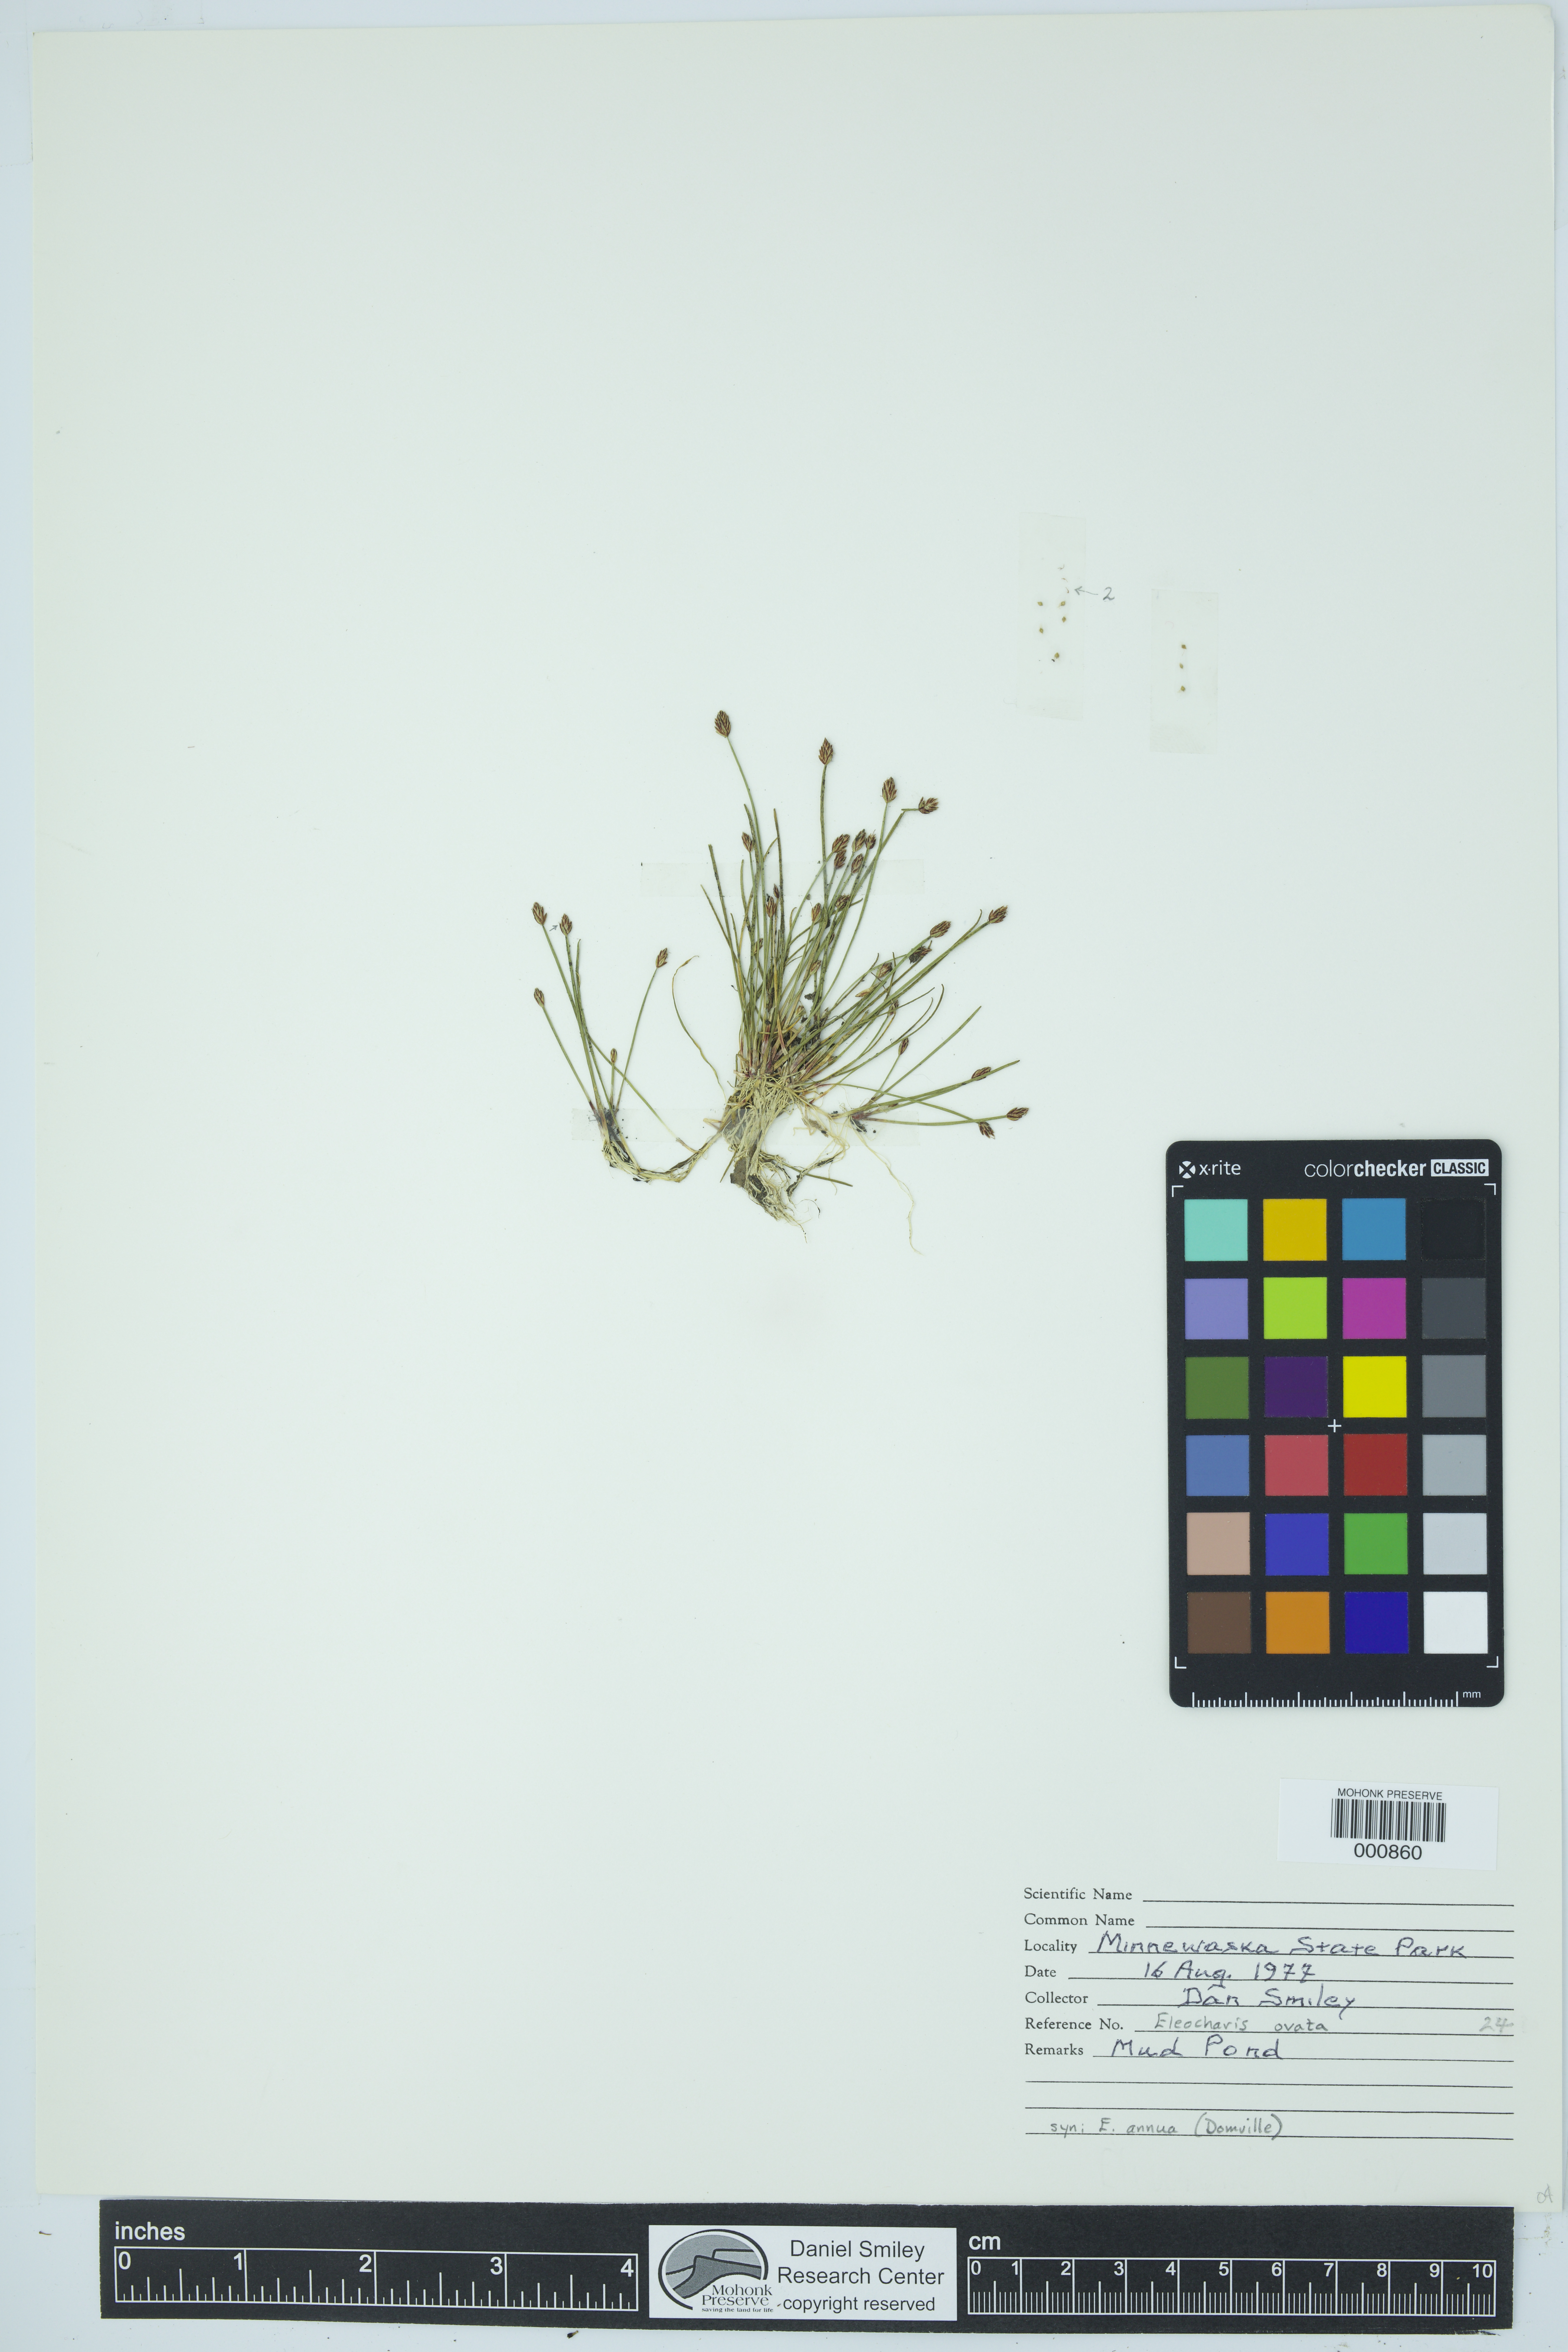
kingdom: Plantae
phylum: Tracheophyta
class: Liliopsida
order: Poales
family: Cyperaceae
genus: Eleocharis
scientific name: Eleocharis ovata
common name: Oval spike-rush
